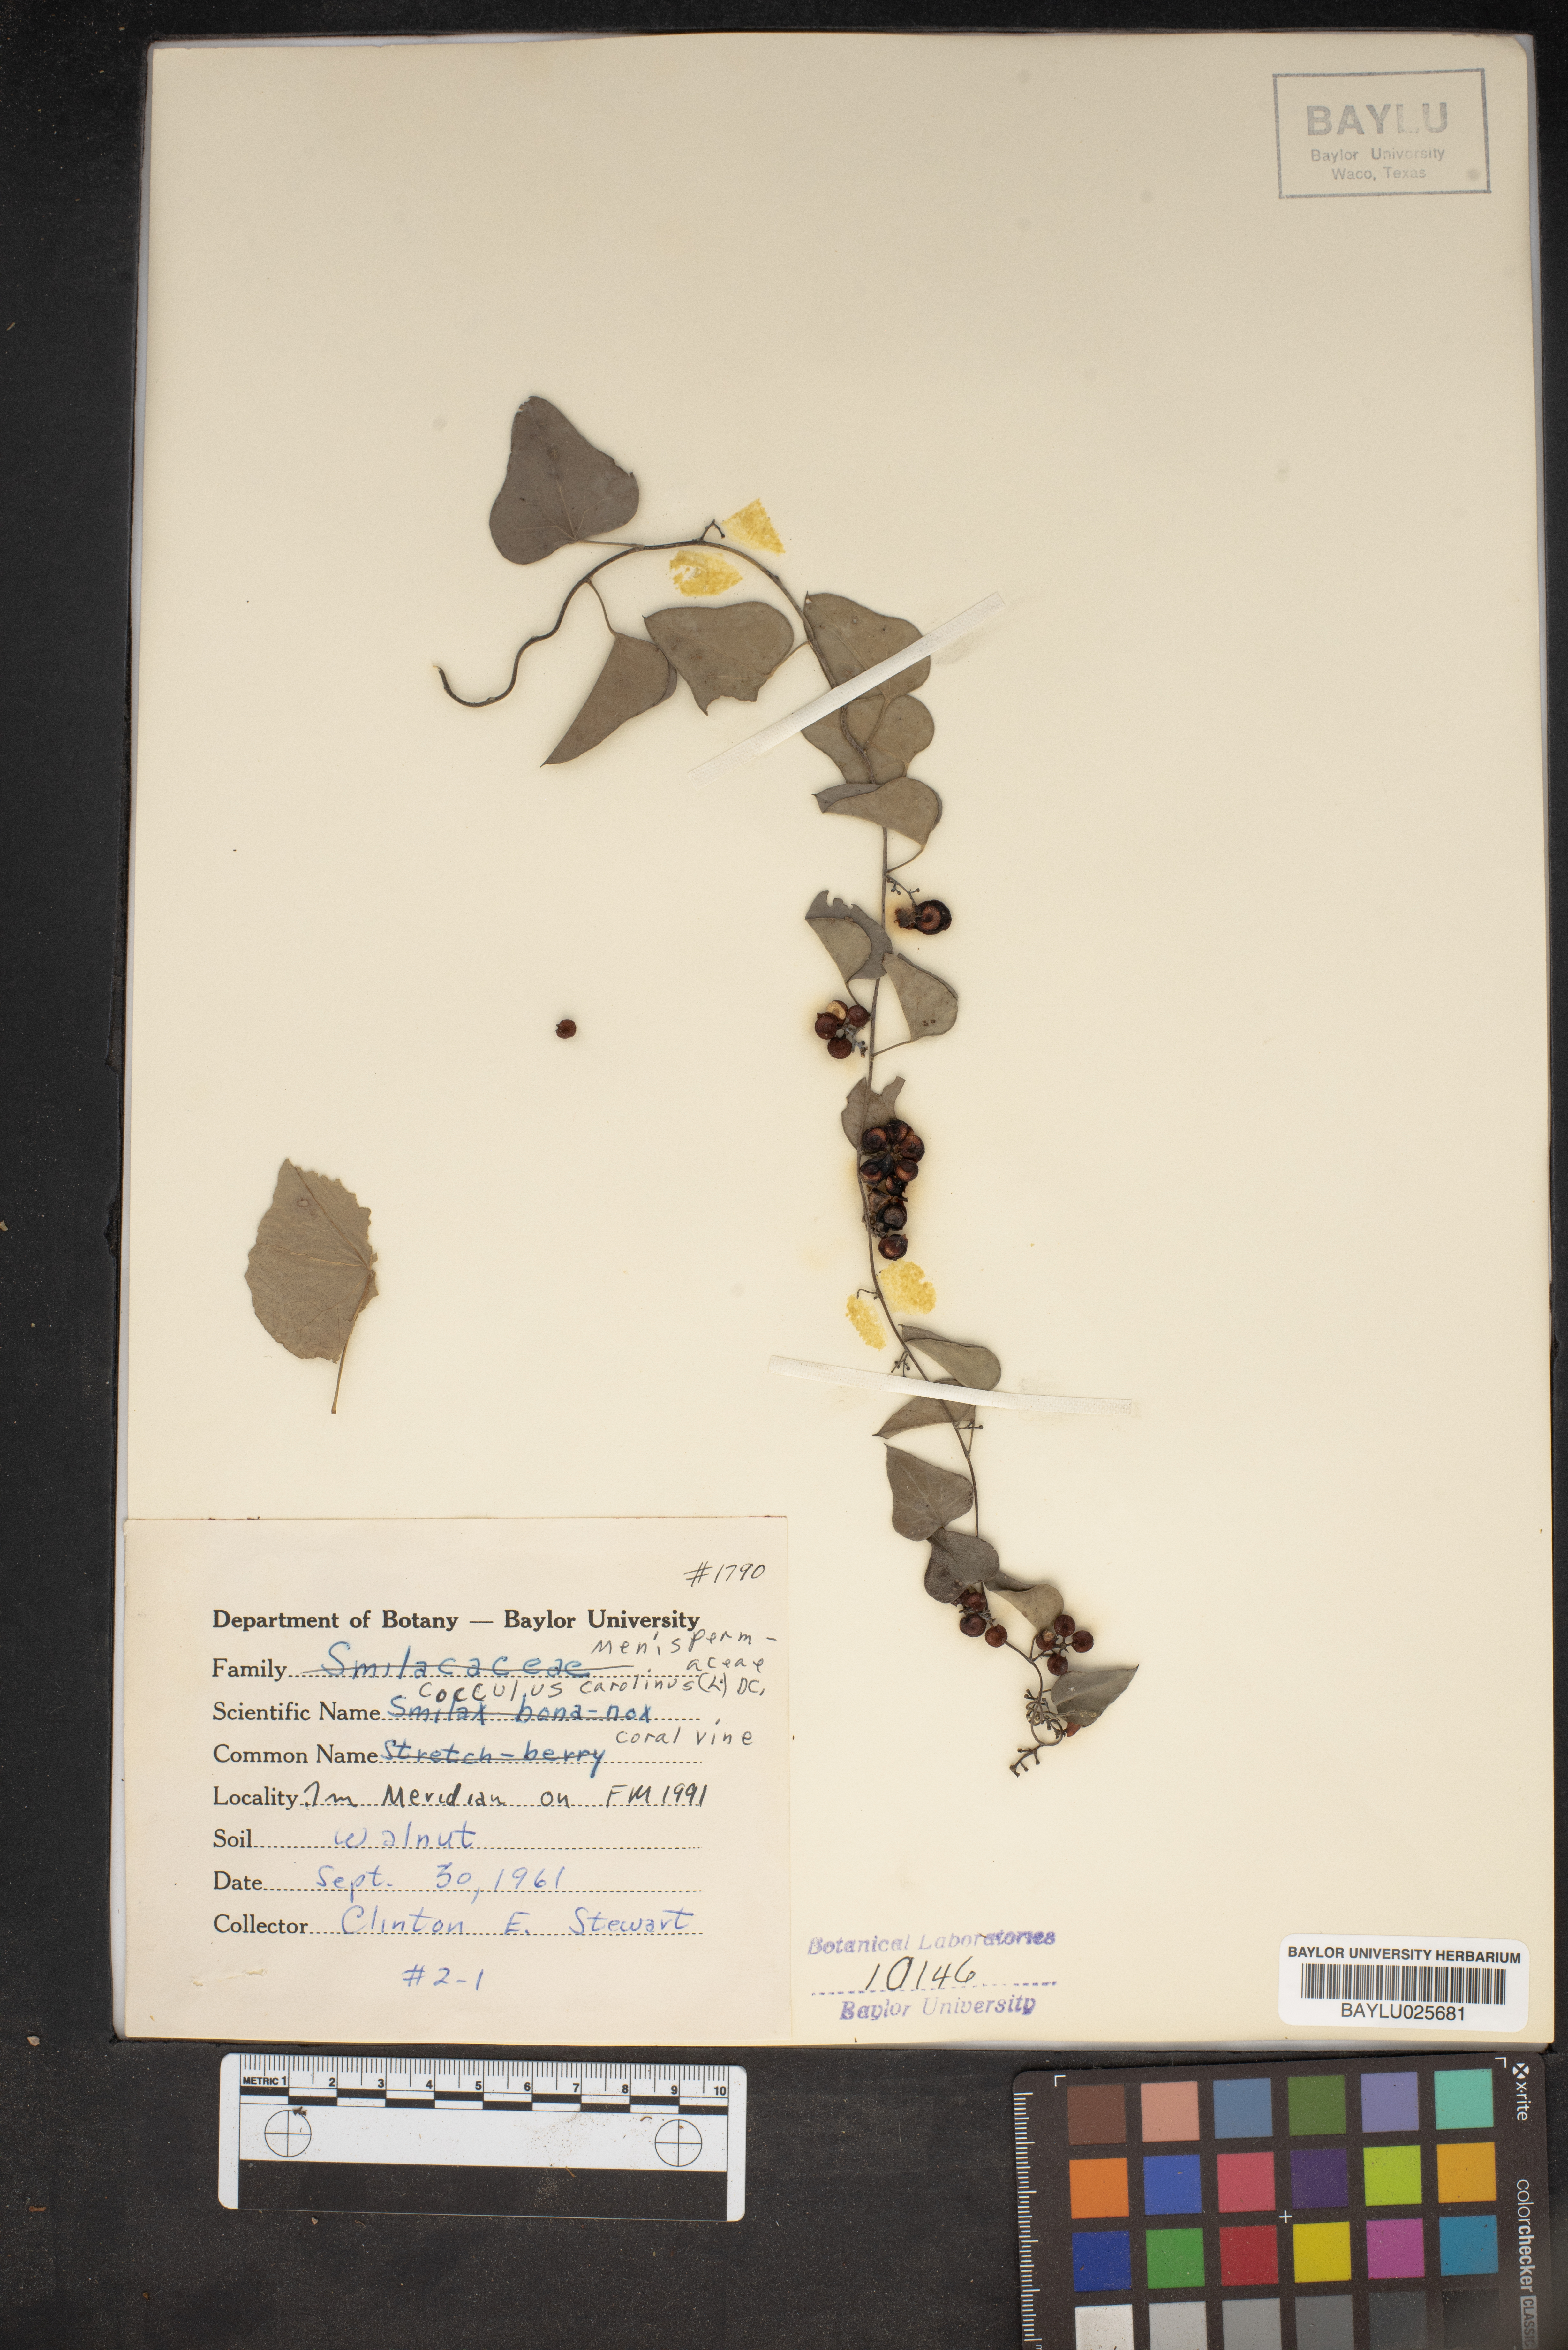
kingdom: Plantae
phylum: Tracheophyta
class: Magnoliopsida
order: Ranunculales
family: Menispermaceae
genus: Cocculus
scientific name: Cocculus carolinus
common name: Carolina moonseed
